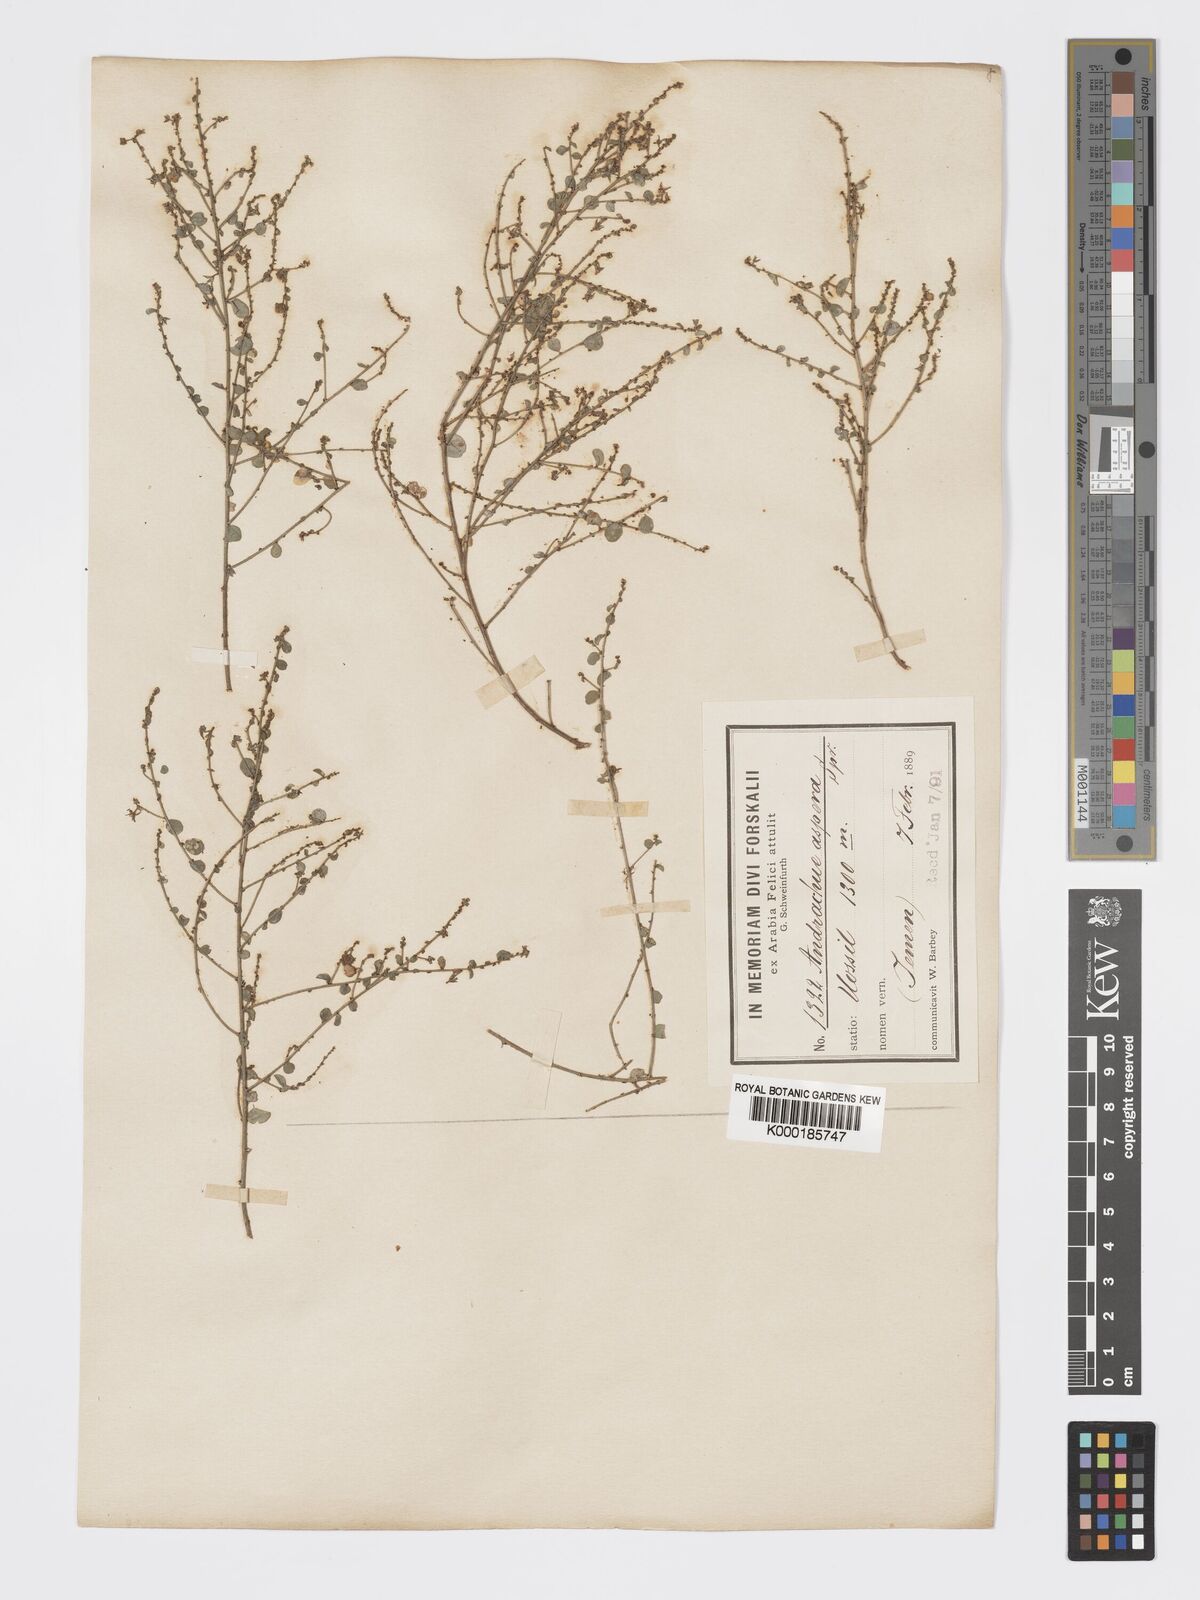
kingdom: Plantae
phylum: Tracheophyta
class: Magnoliopsida
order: Malpighiales
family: Phyllanthaceae
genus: Andrachne
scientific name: Andrachne aspera
